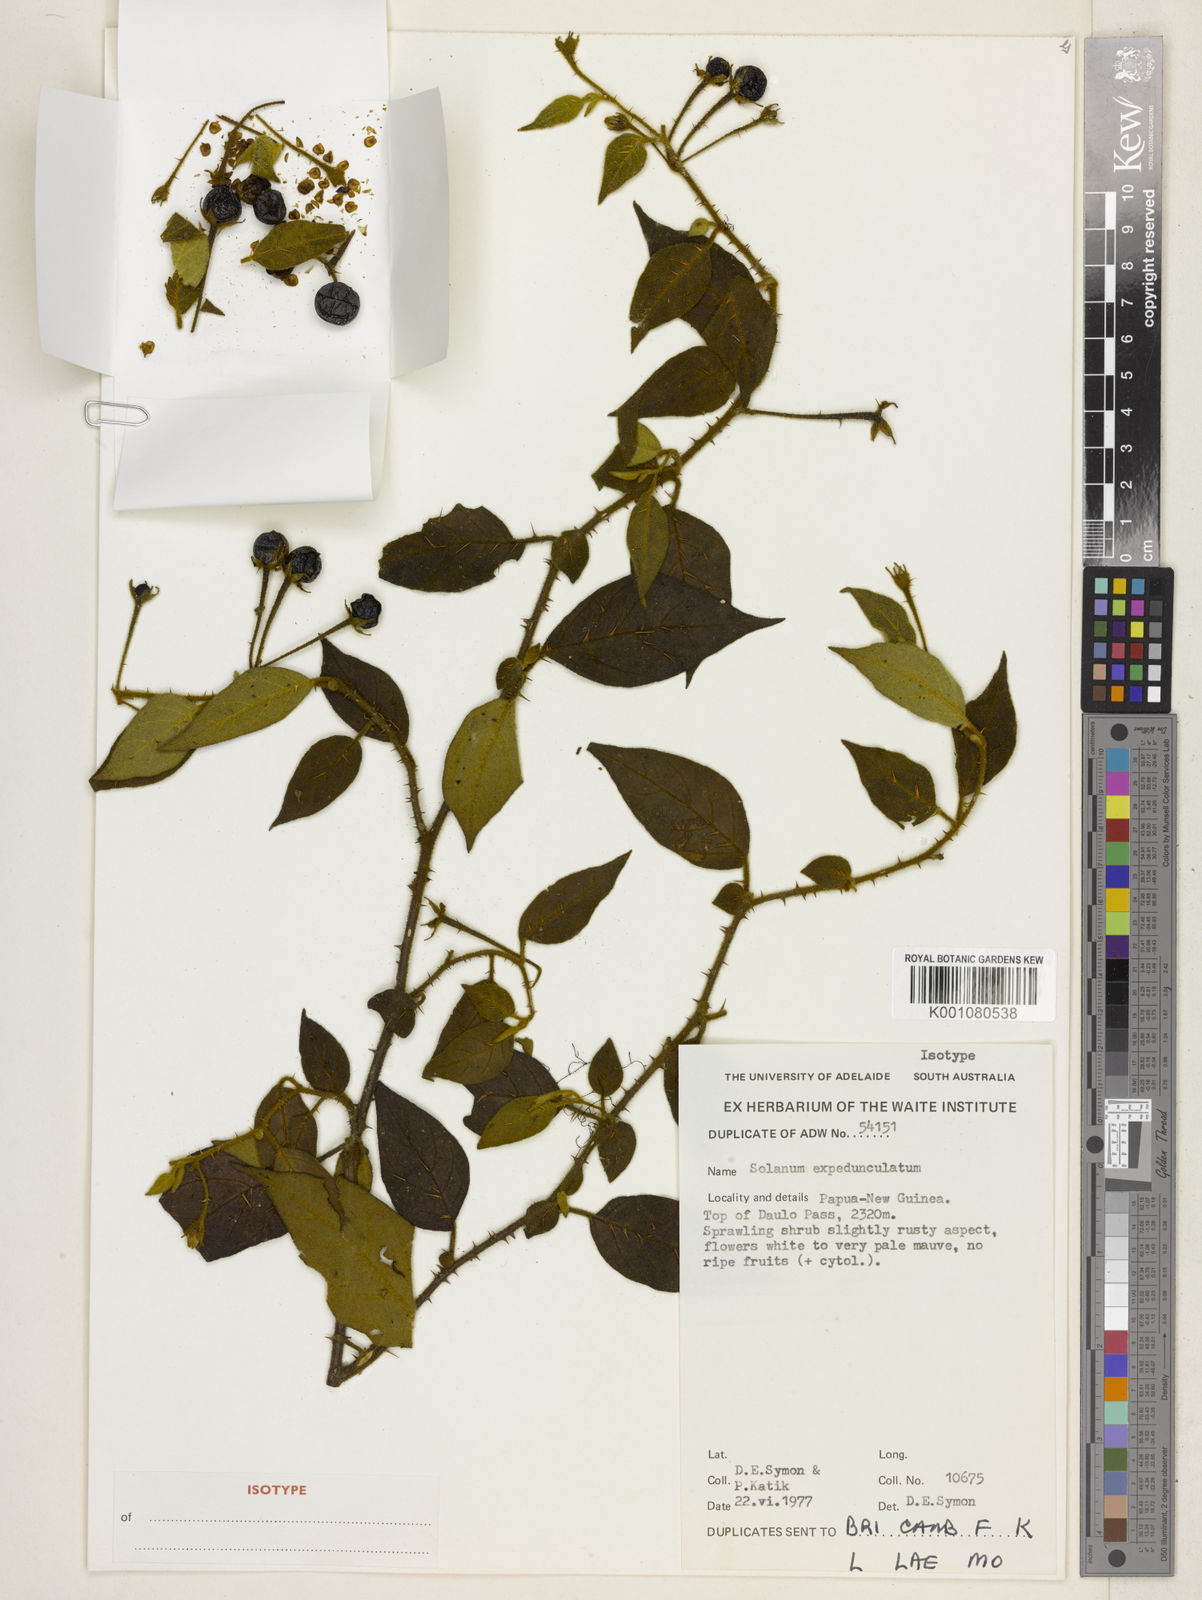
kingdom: Plantae
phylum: Tracheophyta
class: Magnoliopsida
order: Solanales
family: Solanaceae
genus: Solanum
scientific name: Solanum expedunculatum
